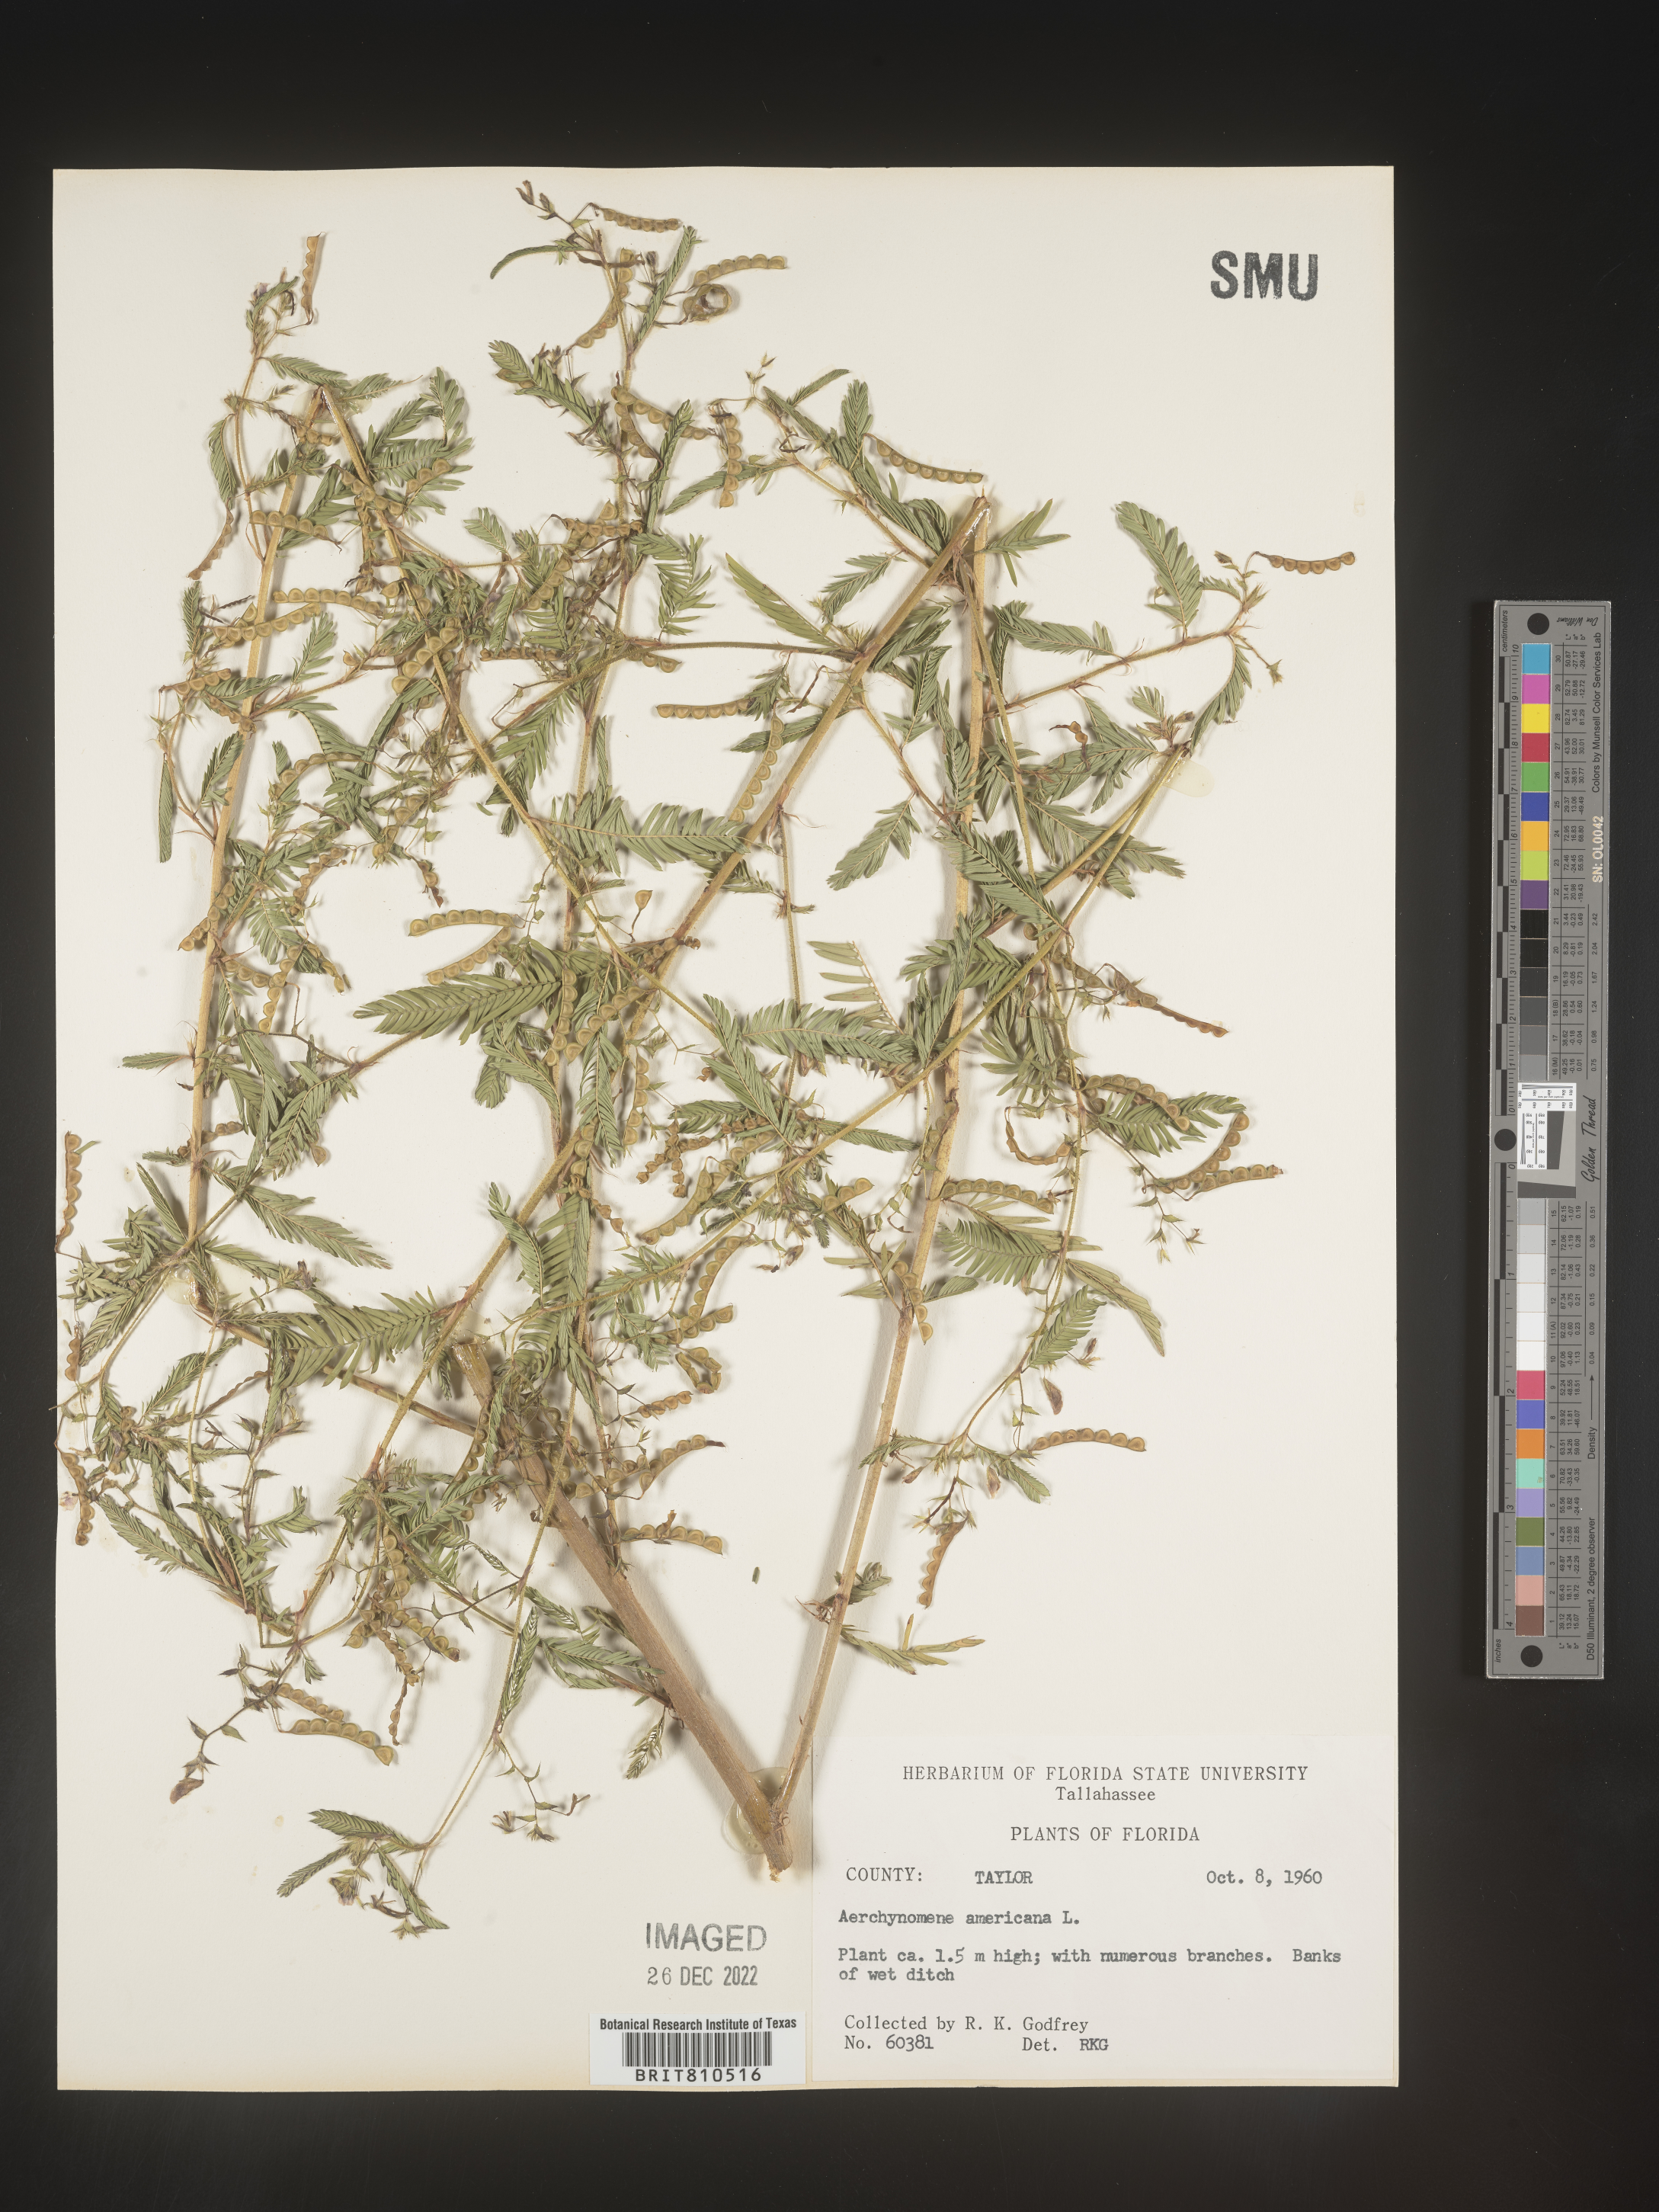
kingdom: Plantae
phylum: Tracheophyta
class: Magnoliopsida
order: Fabales
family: Fabaceae
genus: Aeschynomene
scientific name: Aeschynomene americana
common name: Joint-vetch
